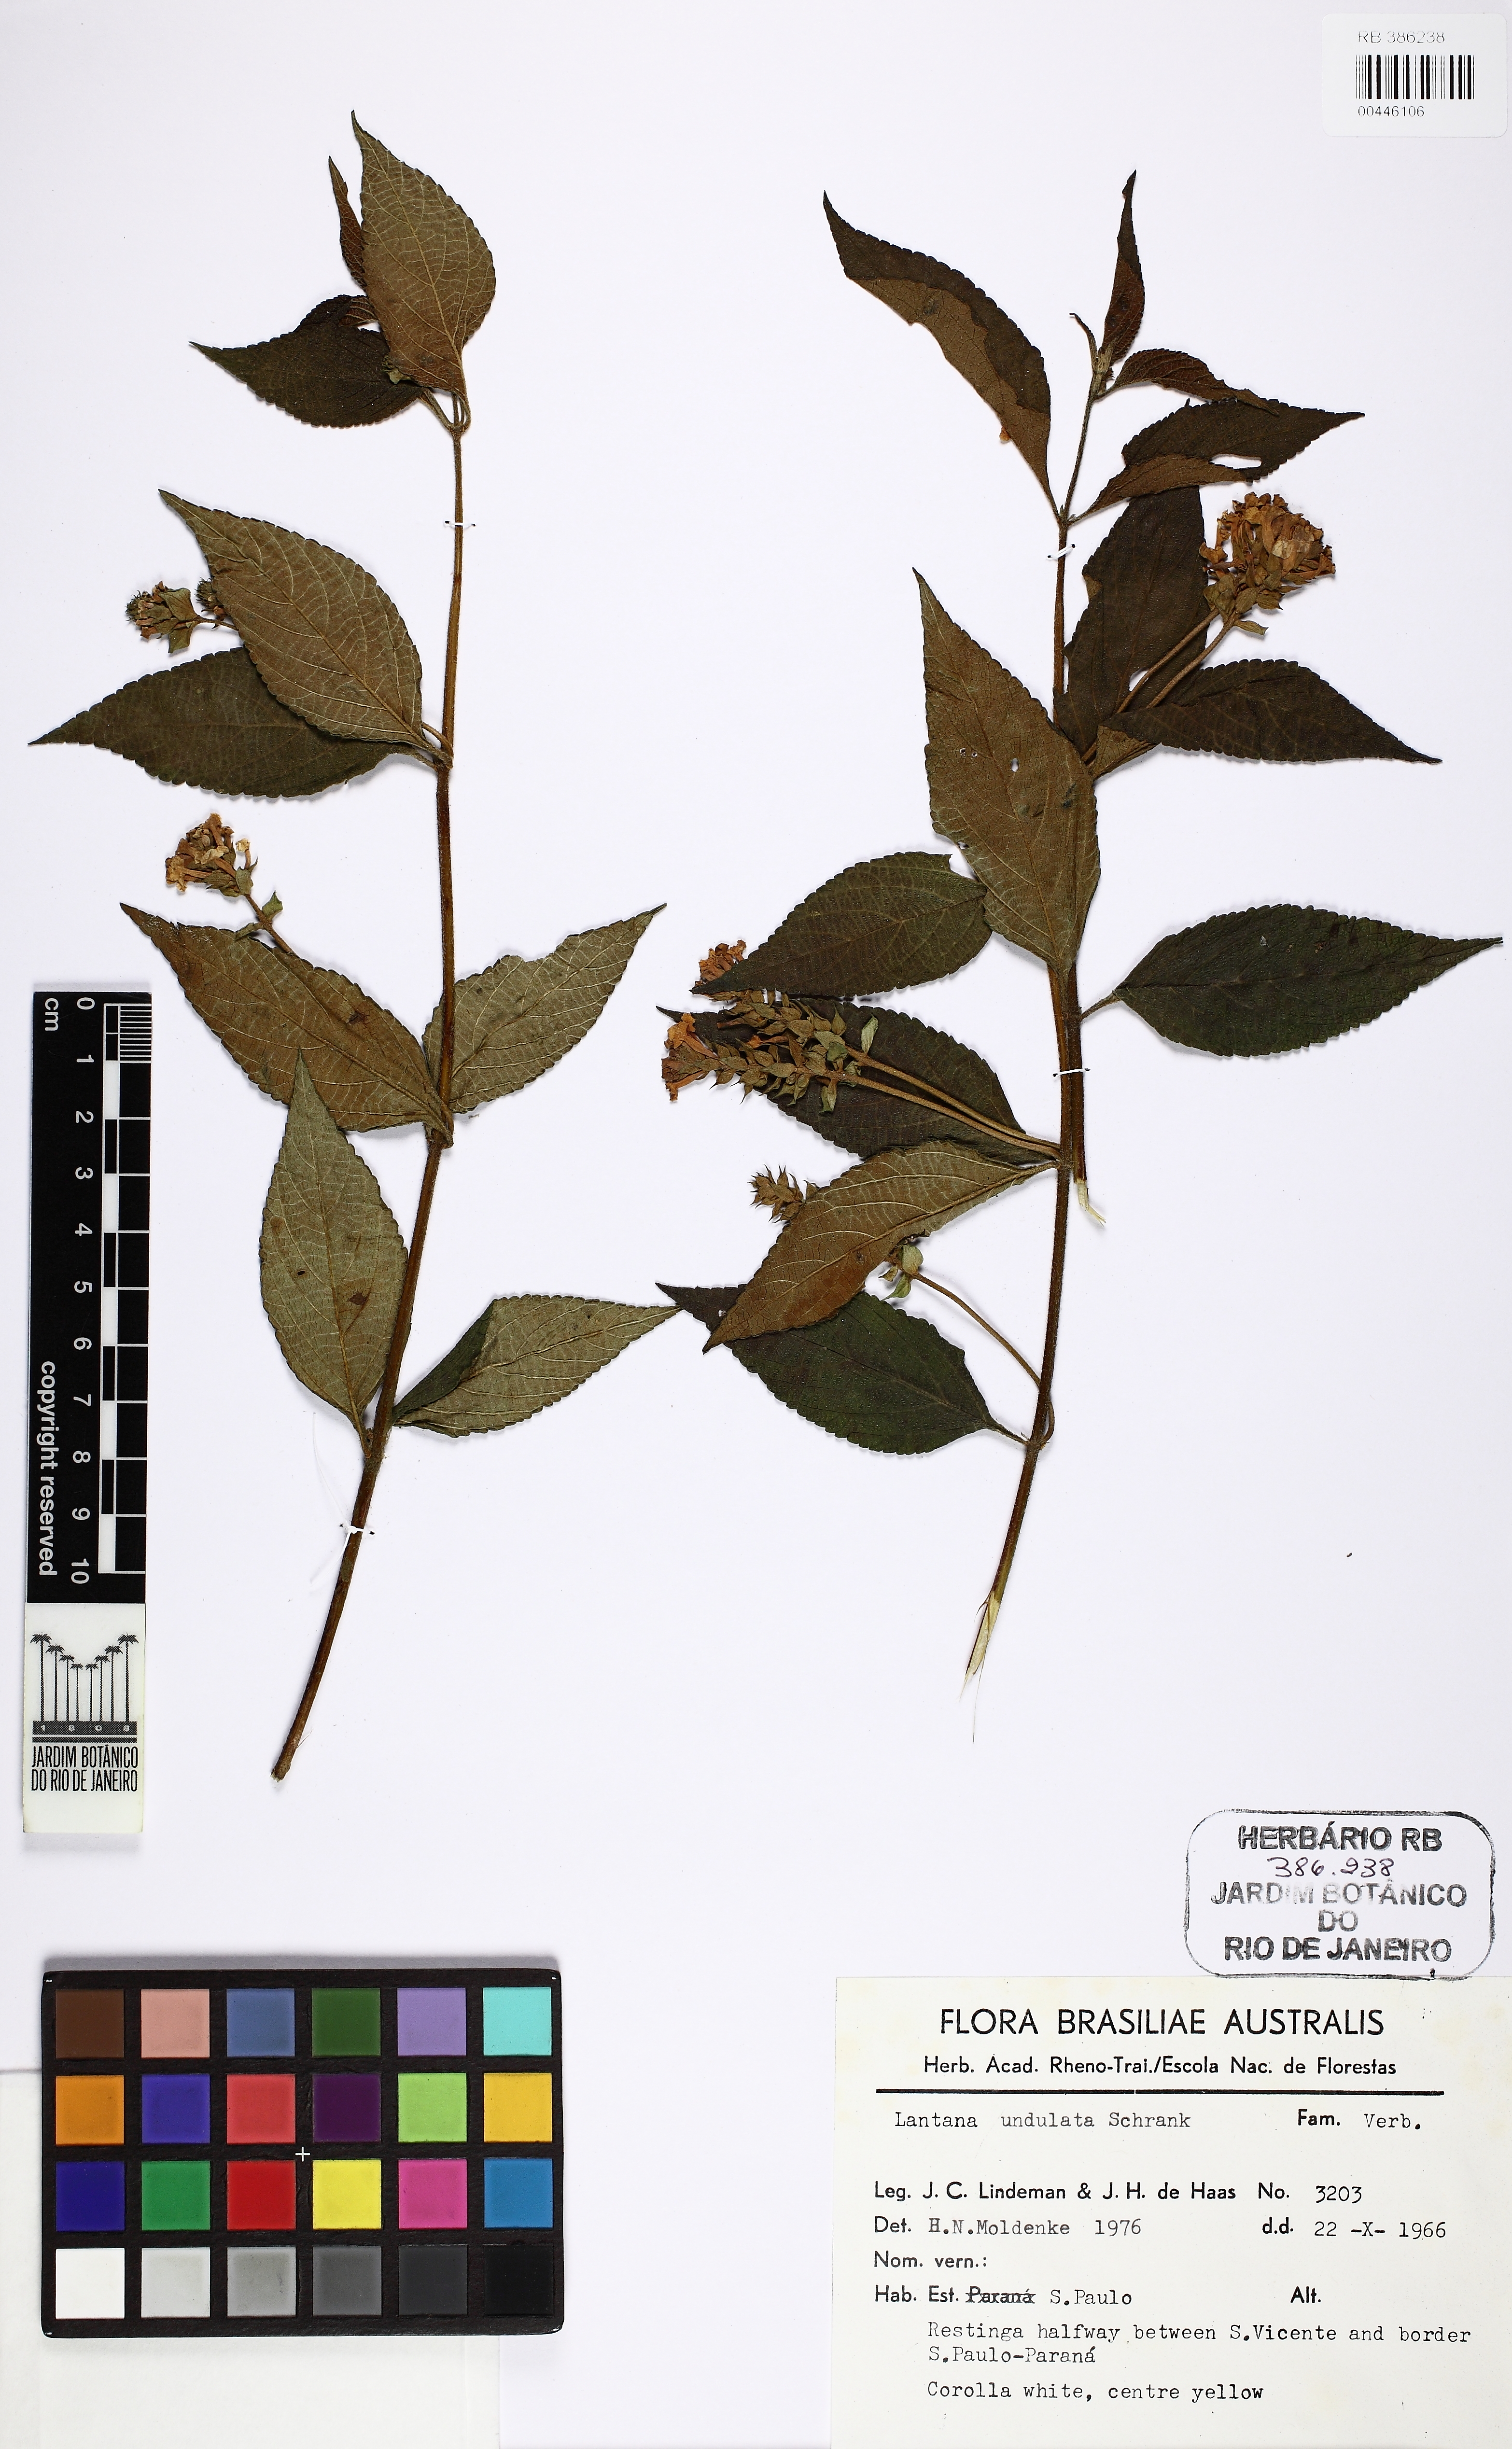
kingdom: Plantae
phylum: Tracheophyta
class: Magnoliopsida
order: Lamiales
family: Verbenaceae
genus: Lantana
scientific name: Lantana undulata
